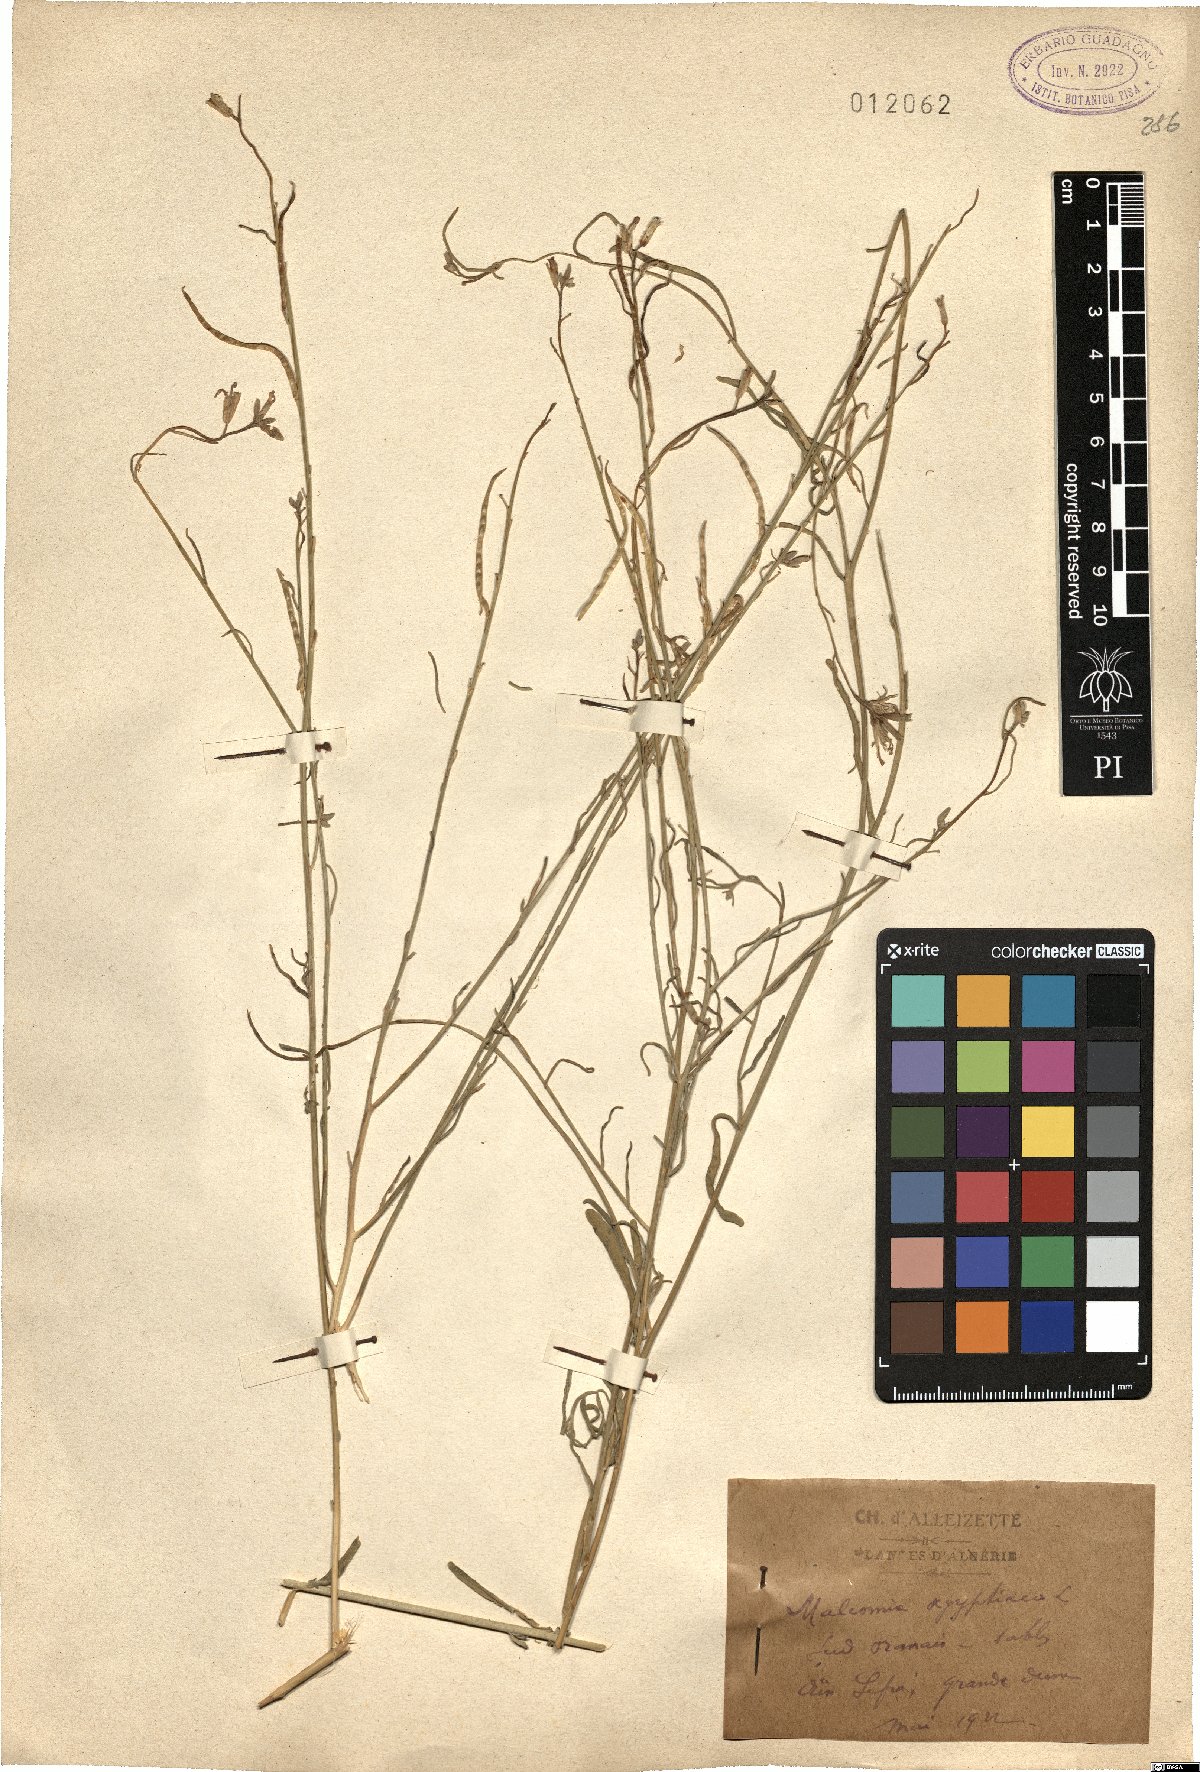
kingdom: Plantae
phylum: Tracheophyta
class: Magnoliopsida
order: Brassicales
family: Brassicaceae
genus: Eremobium
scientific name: Eremobium aegyptiacum
